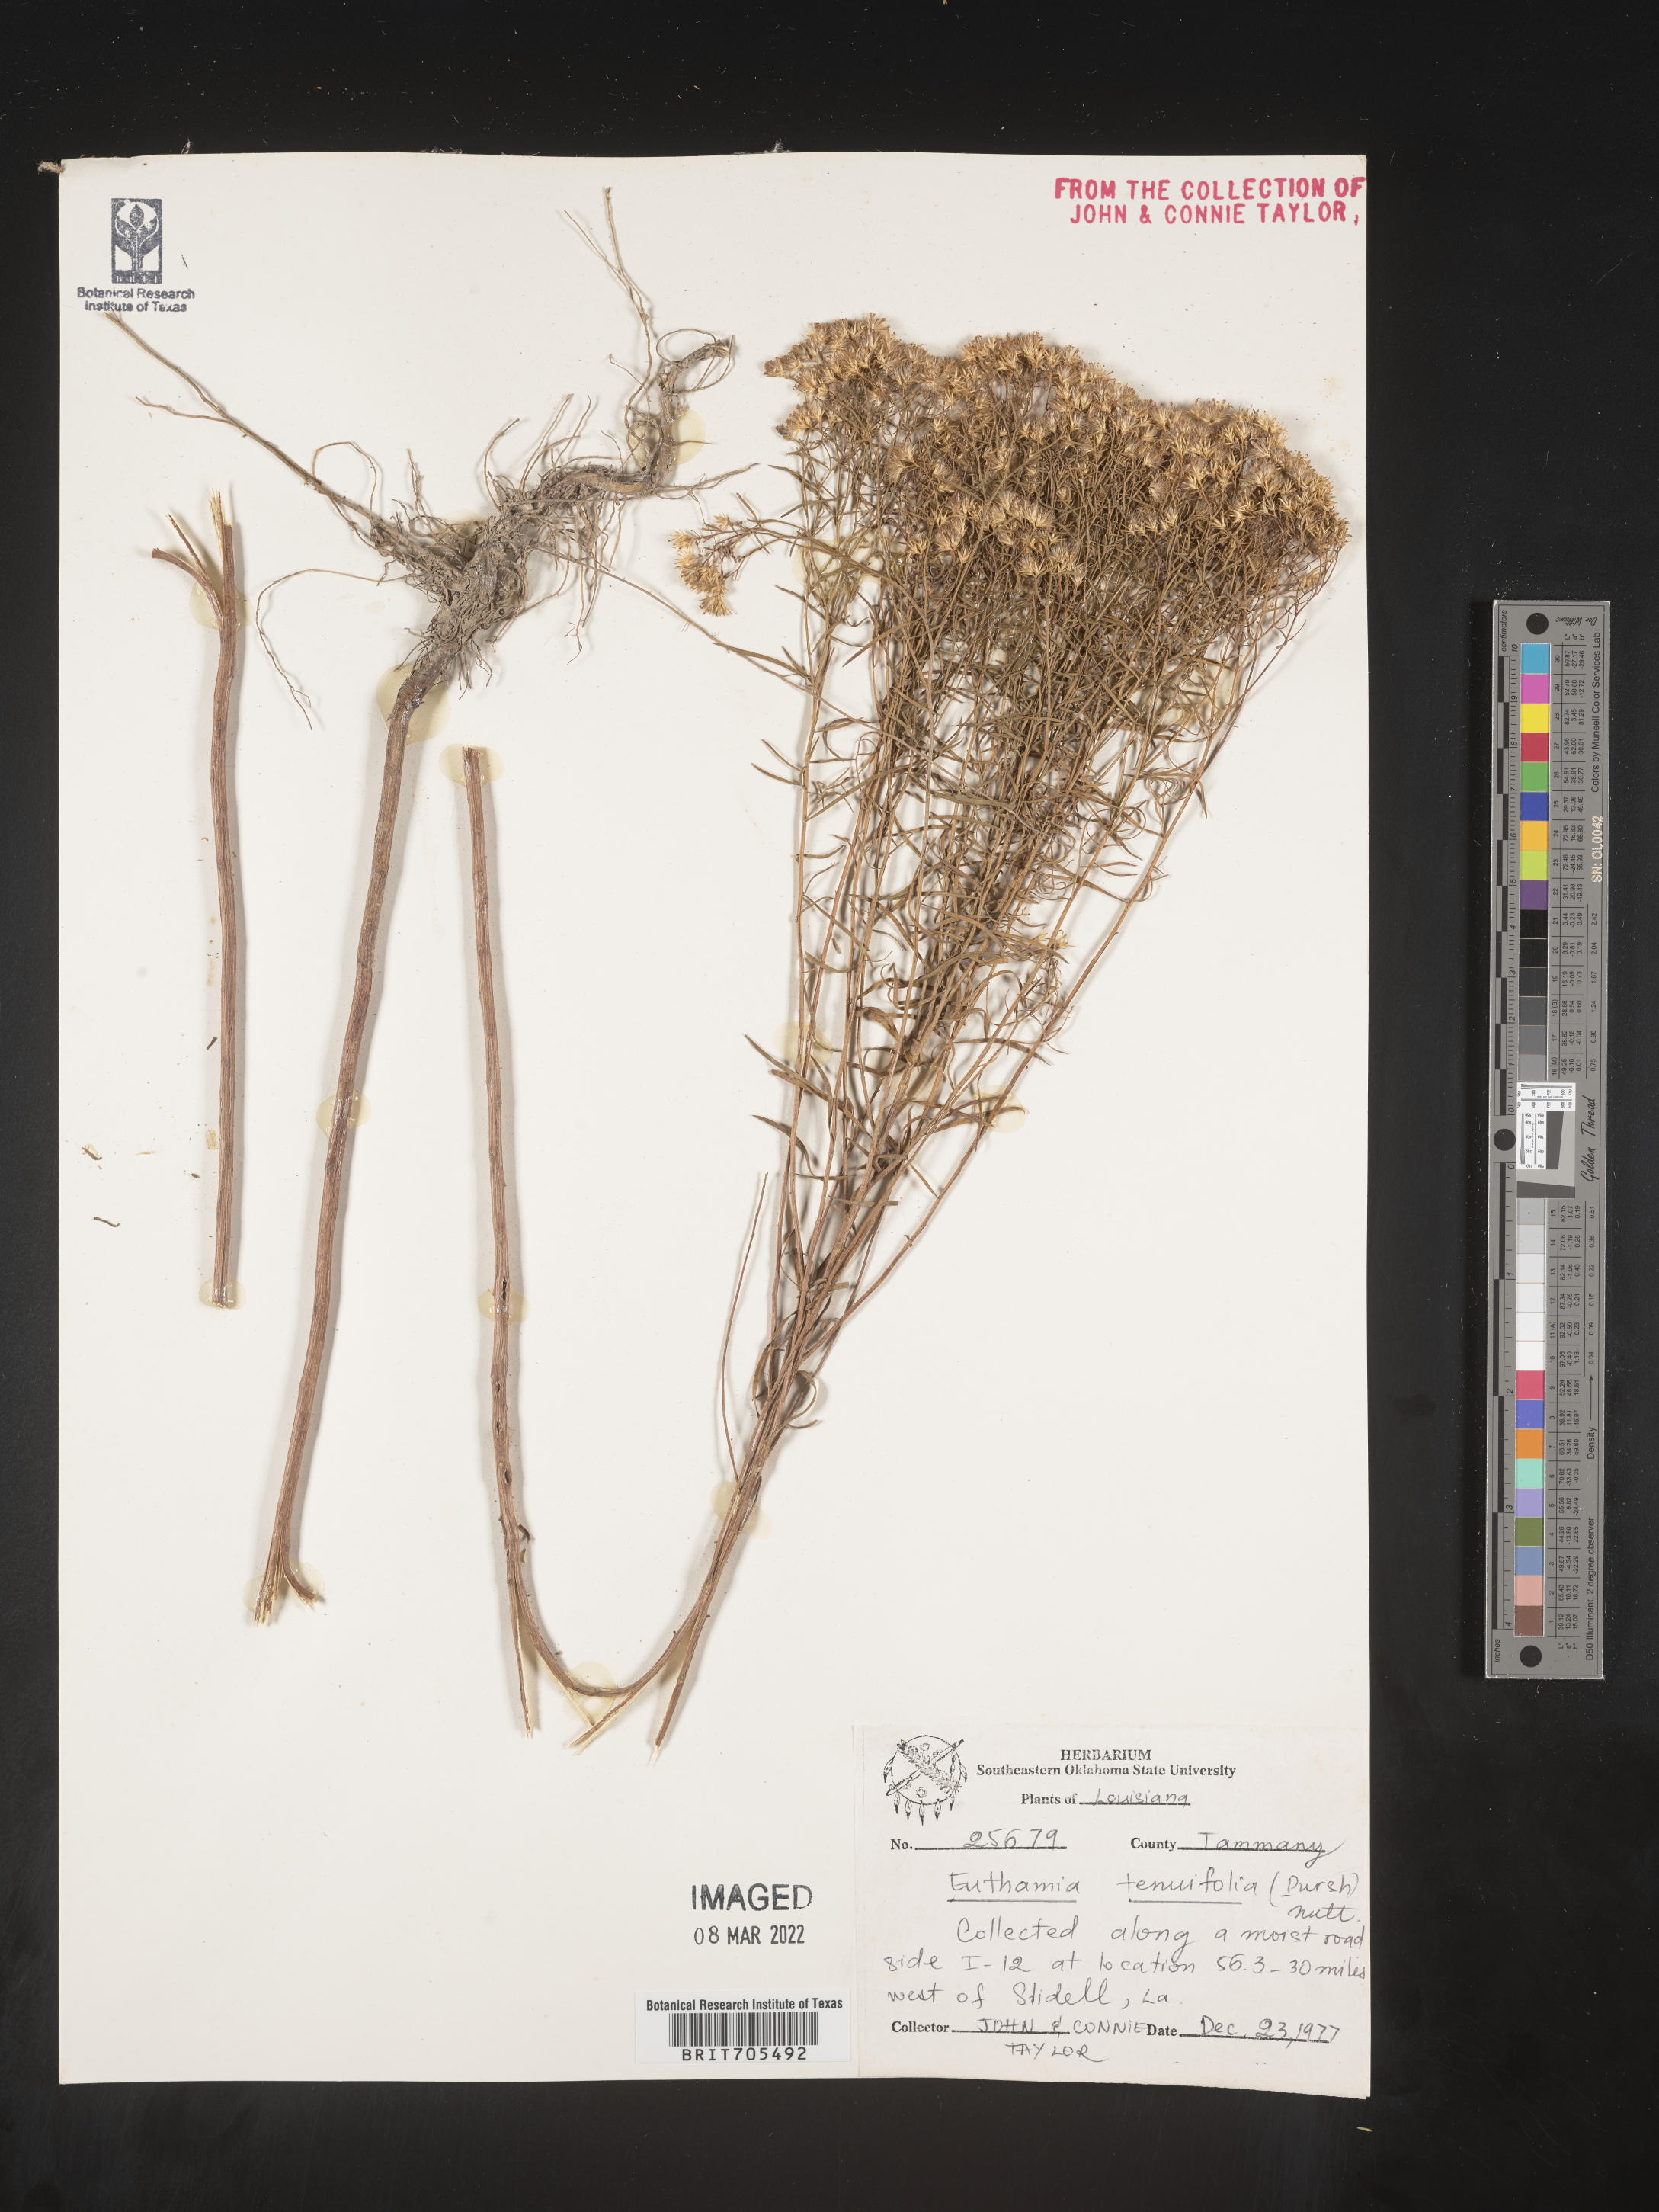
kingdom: Plantae
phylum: Tracheophyta
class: Magnoliopsida
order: Asterales
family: Asteraceae
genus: Euthamia
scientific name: Euthamia caroliniana
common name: Coastal plain goldentop
